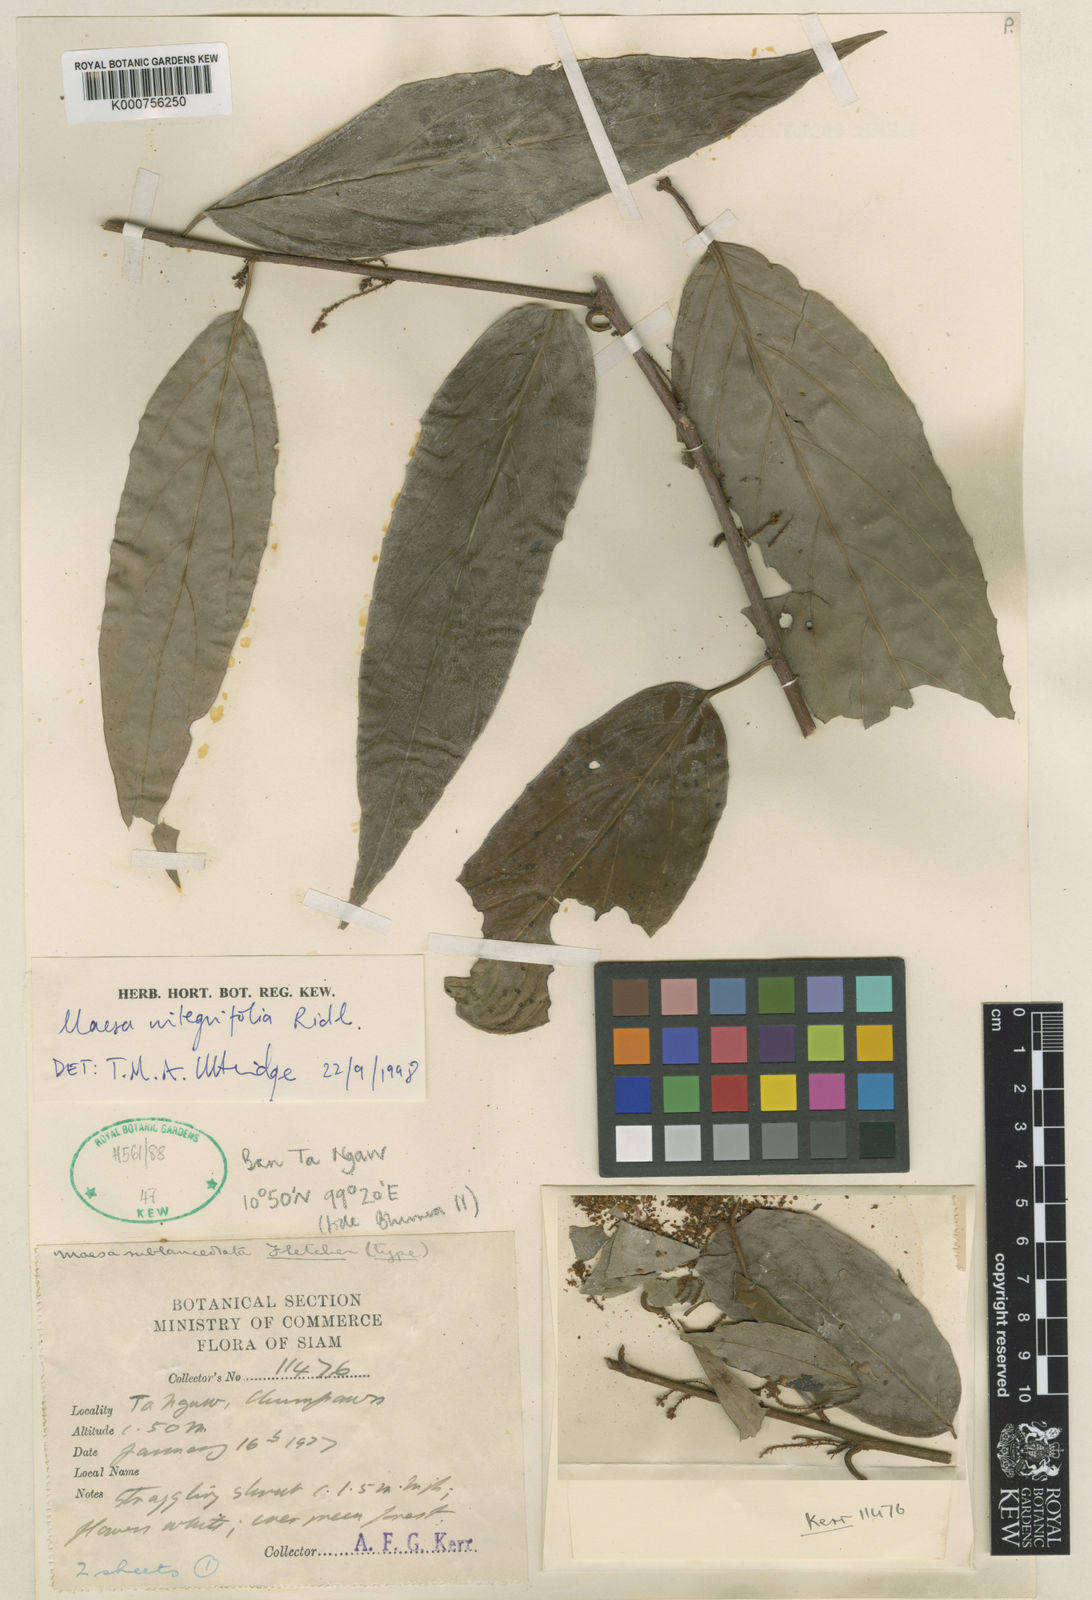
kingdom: Plantae
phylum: Tracheophyta
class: Magnoliopsida
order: Ericales
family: Primulaceae
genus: Maesa
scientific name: Maesa integrifolia
